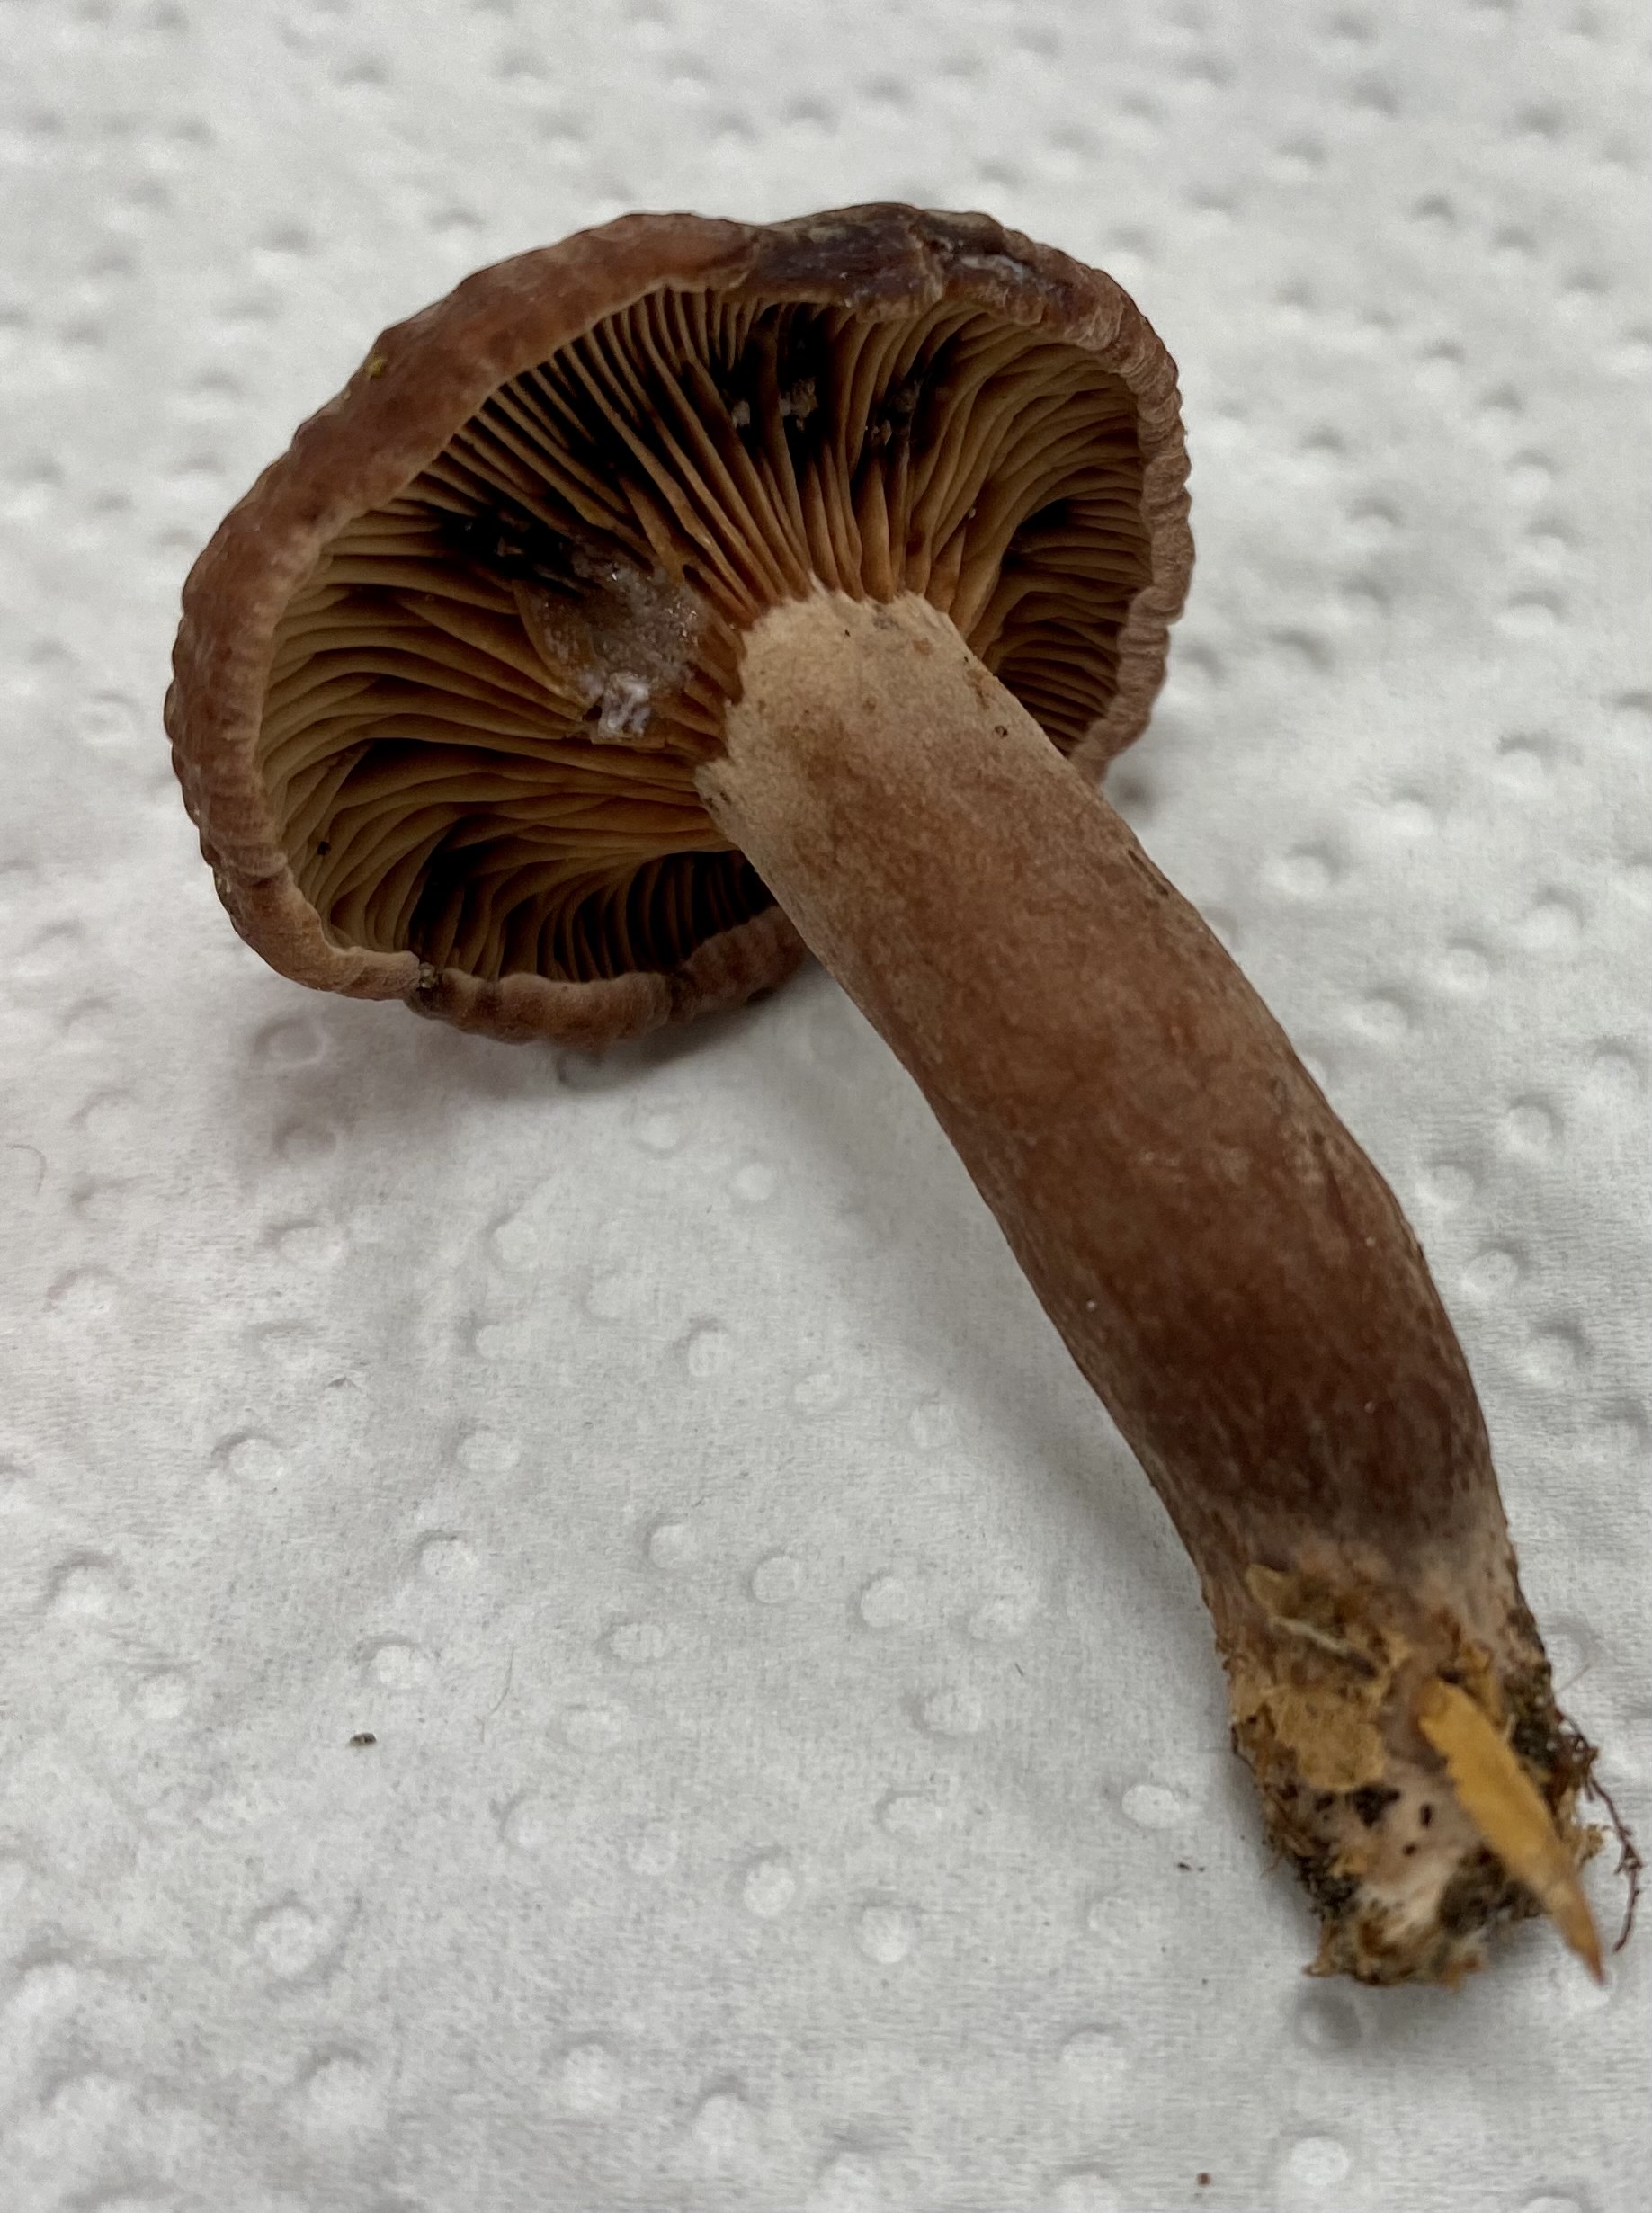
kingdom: Fungi
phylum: Basidiomycota
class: Agaricomycetes
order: Russulales
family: Russulaceae
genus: Lactarius
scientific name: Lactarius camphoratus
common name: kamfer-mælkehat
